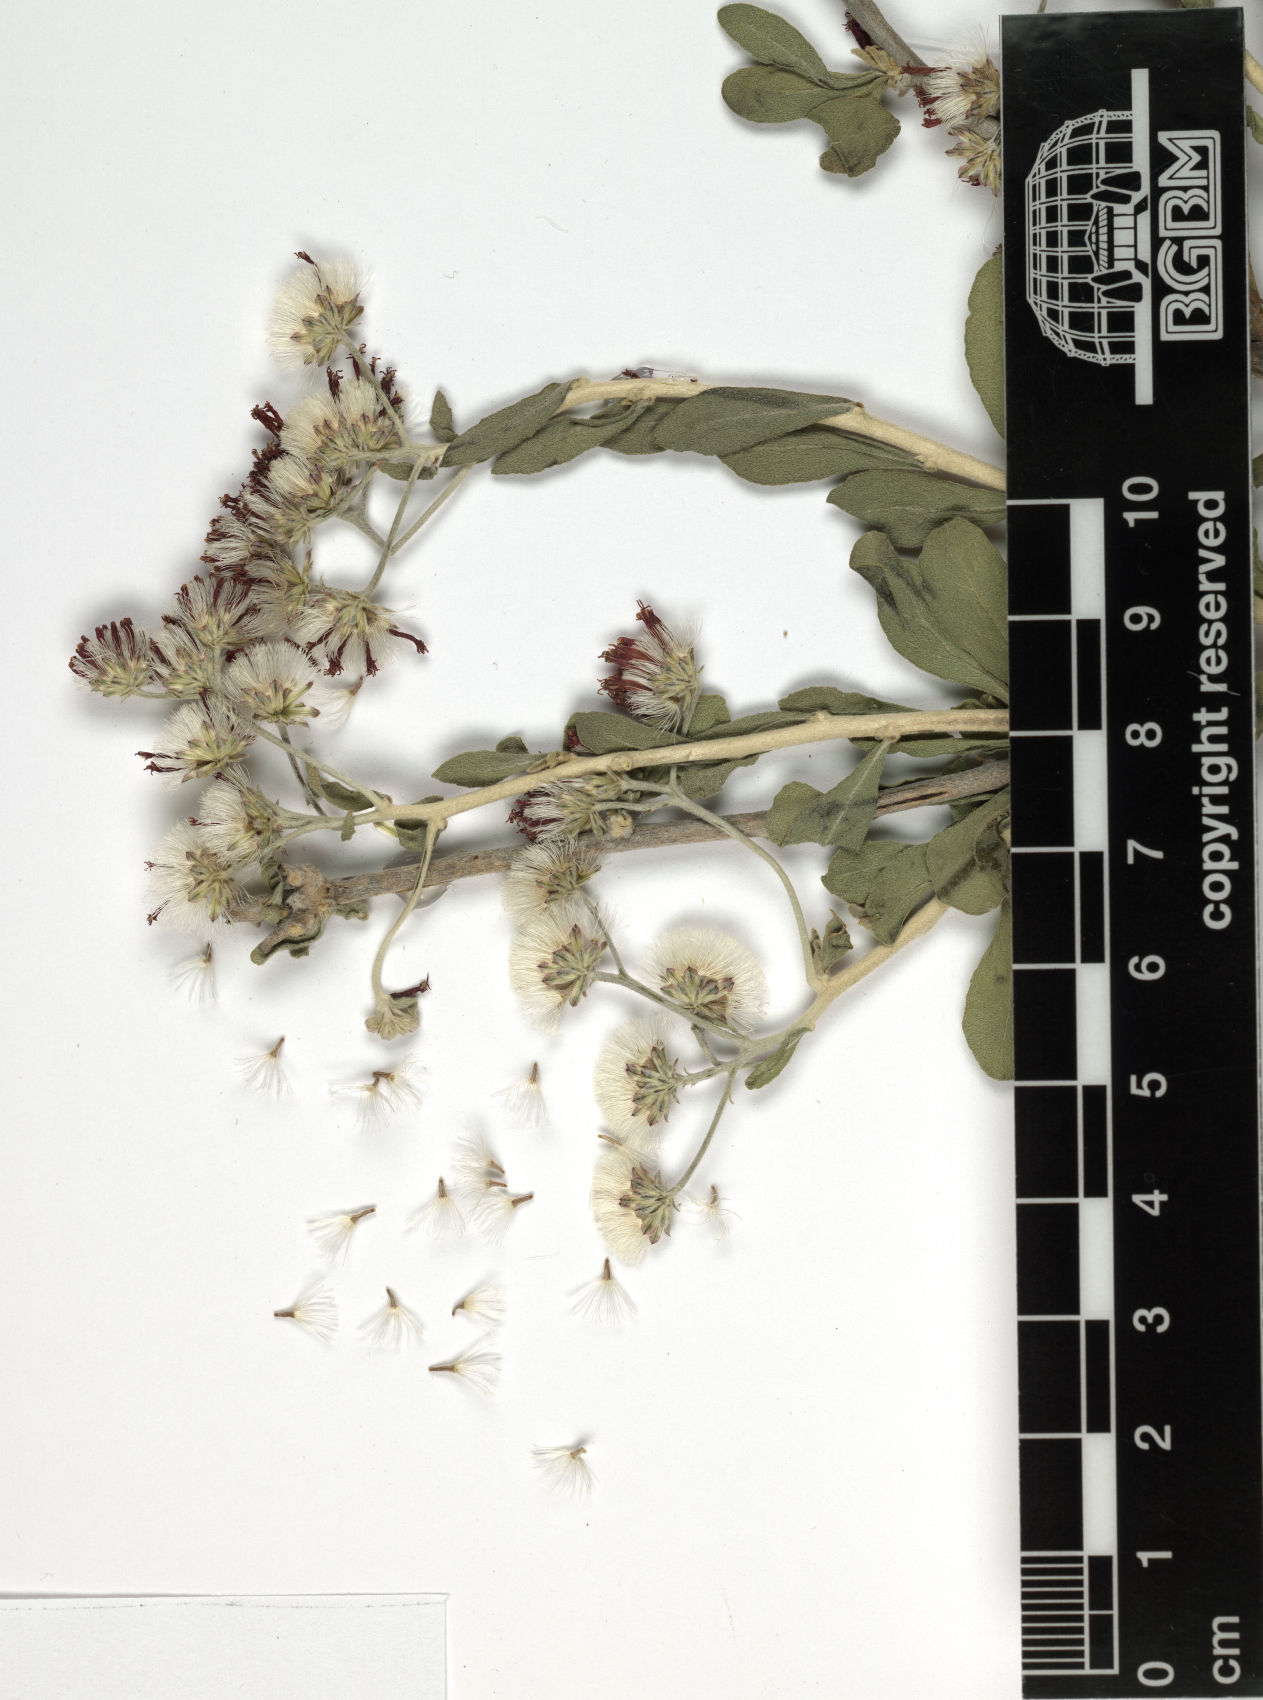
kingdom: Plantae
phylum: Tracheophyta
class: Magnoliopsida
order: Asterales
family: Asteraceae
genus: Orbivestus
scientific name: Orbivestus cinerascens
